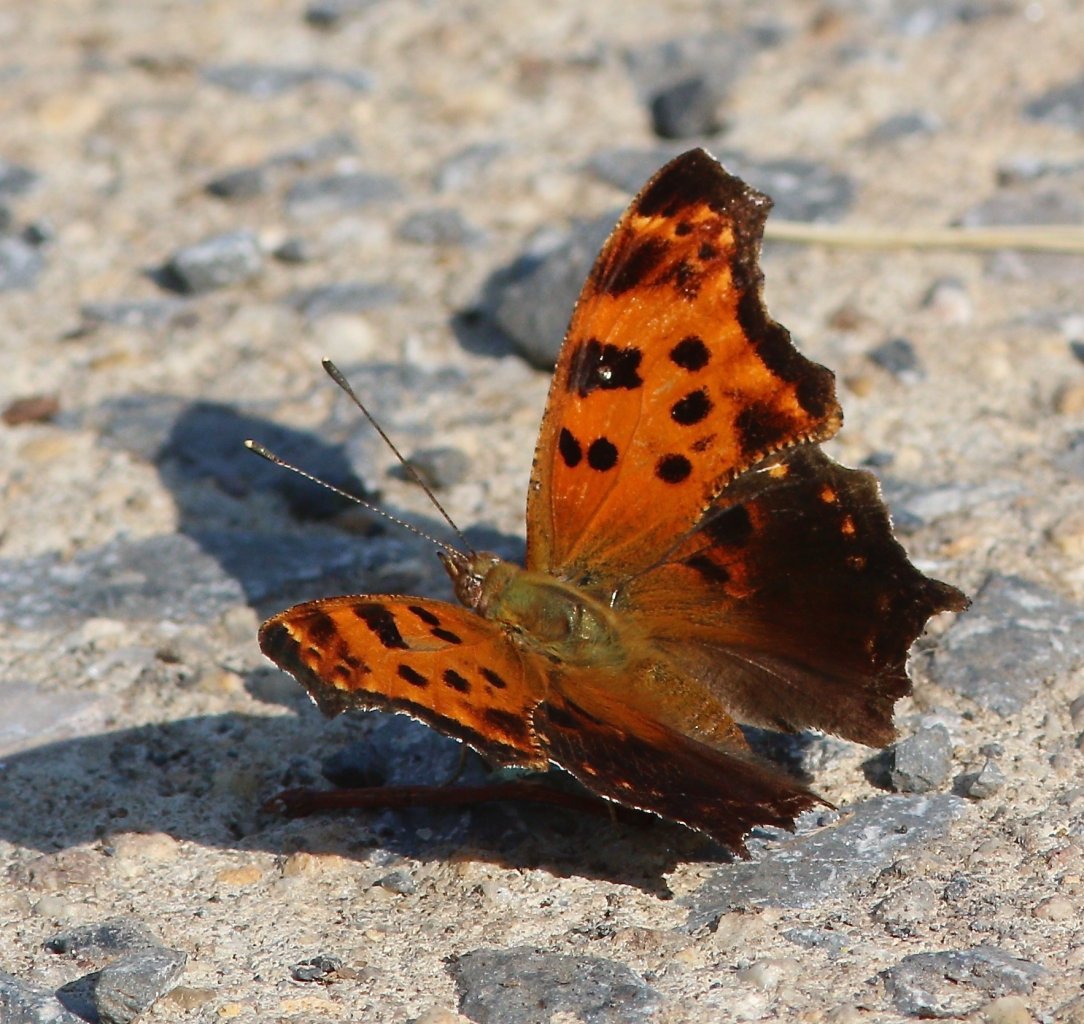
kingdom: Animalia
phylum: Arthropoda
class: Insecta
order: Lepidoptera
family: Nymphalidae
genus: Polygonia
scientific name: Polygonia comma
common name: Eastern Comma
